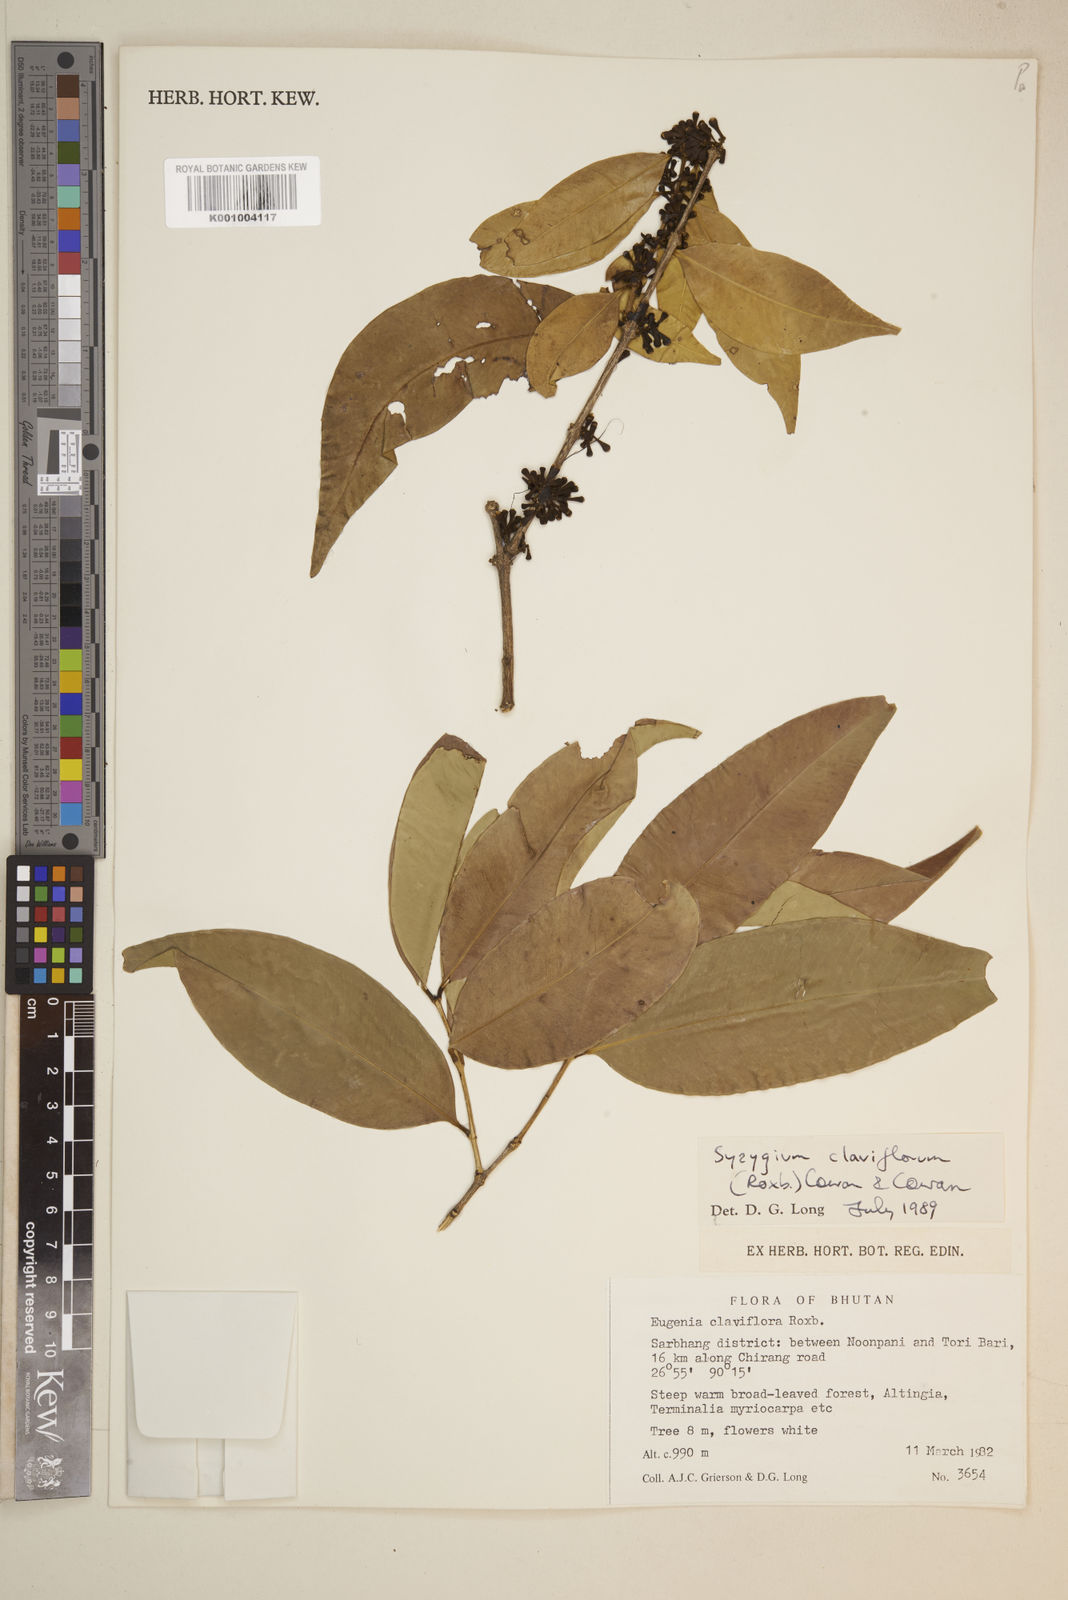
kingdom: Plantae
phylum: Tracheophyta
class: Magnoliopsida
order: Myrtales
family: Myrtaceae
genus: Syzygium
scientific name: Syzygium claviflorum
